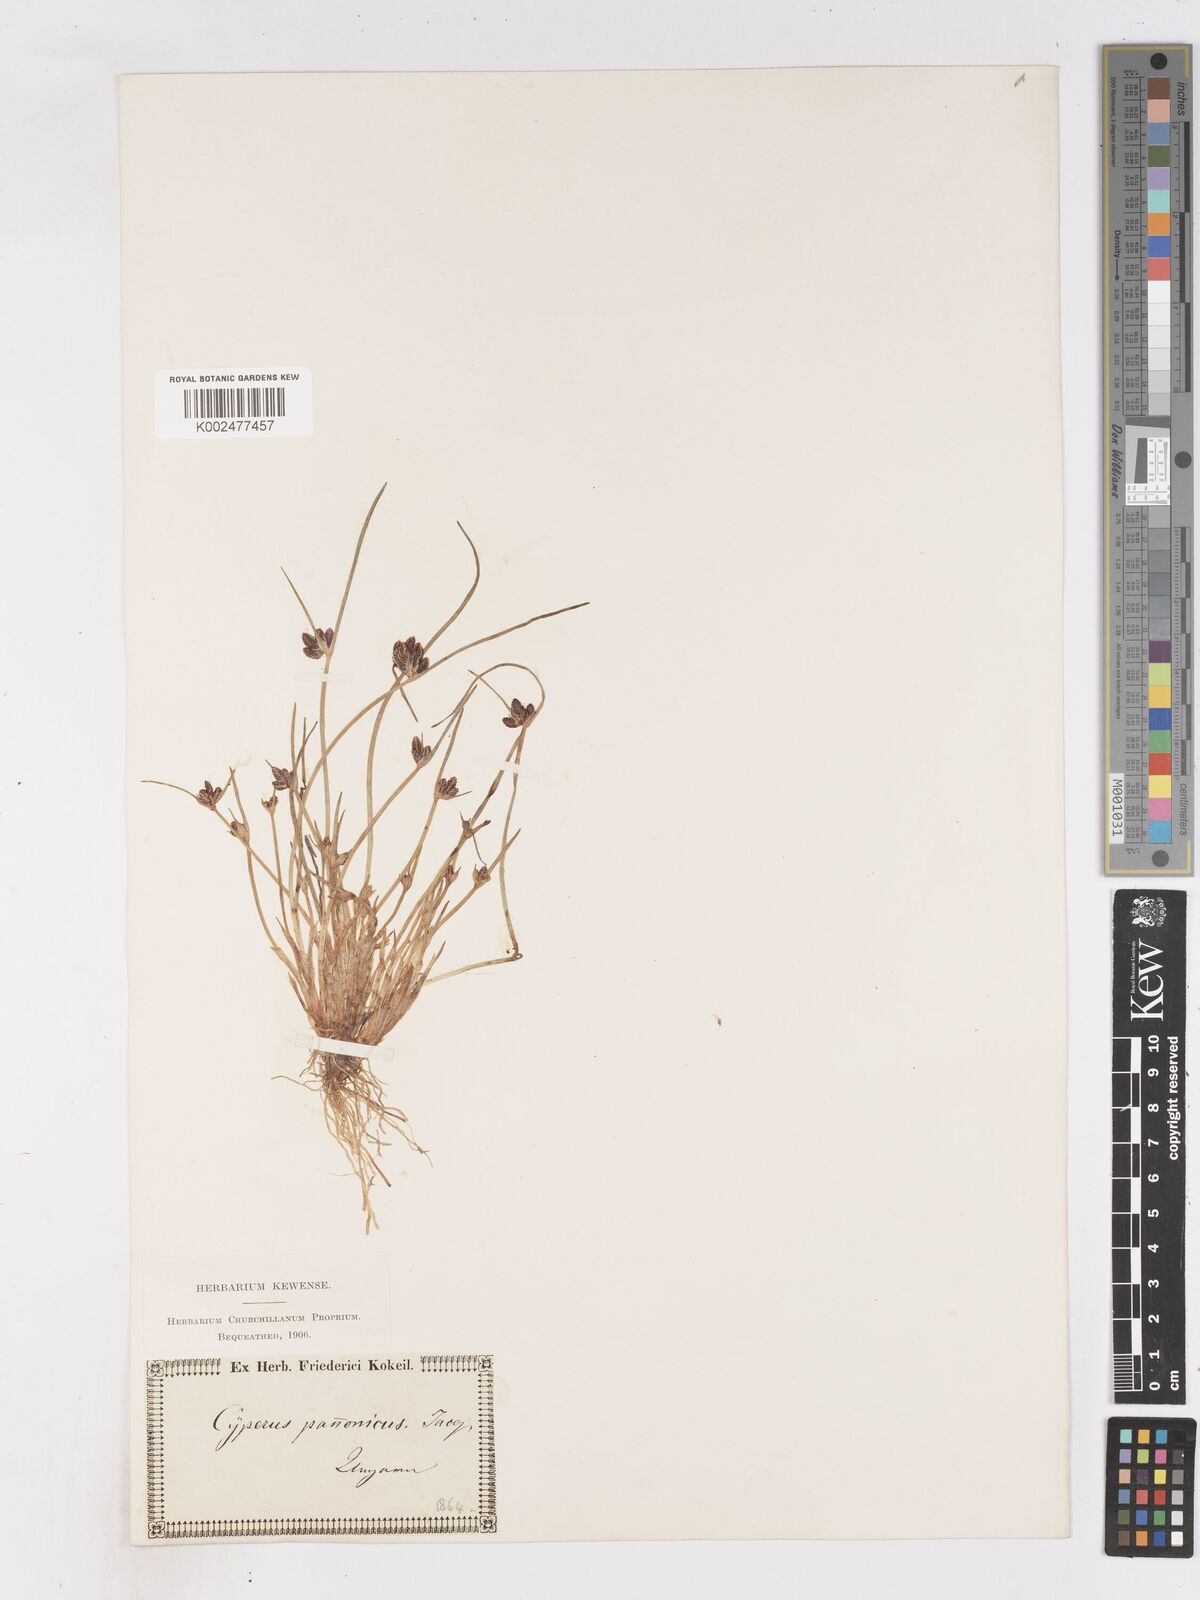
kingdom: Plantae
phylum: Tracheophyta
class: Liliopsida
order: Poales
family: Cyperaceae
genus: Cyperus
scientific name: Cyperus pannonicus
